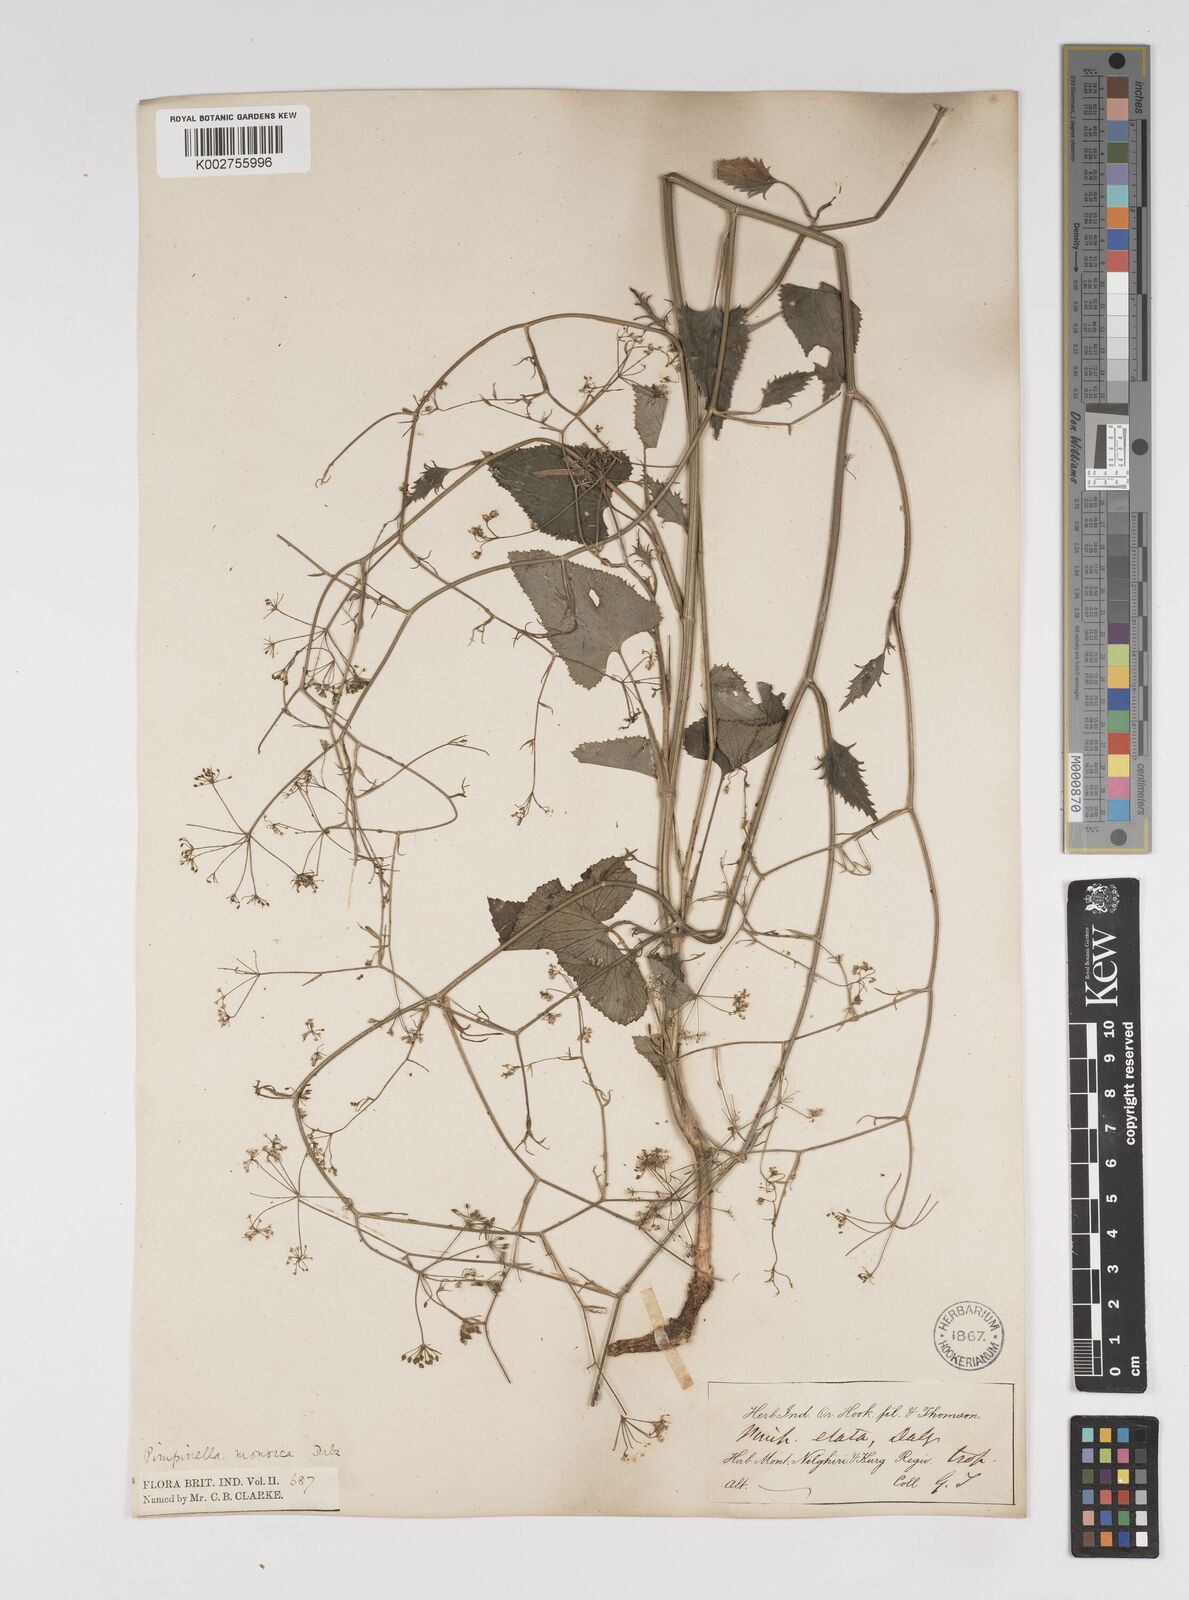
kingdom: Plantae
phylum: Tracheophyta
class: Magnoliopsida
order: Apiales
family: Apiaceae
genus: Pimpinella
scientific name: Pimpinella wallichiana
